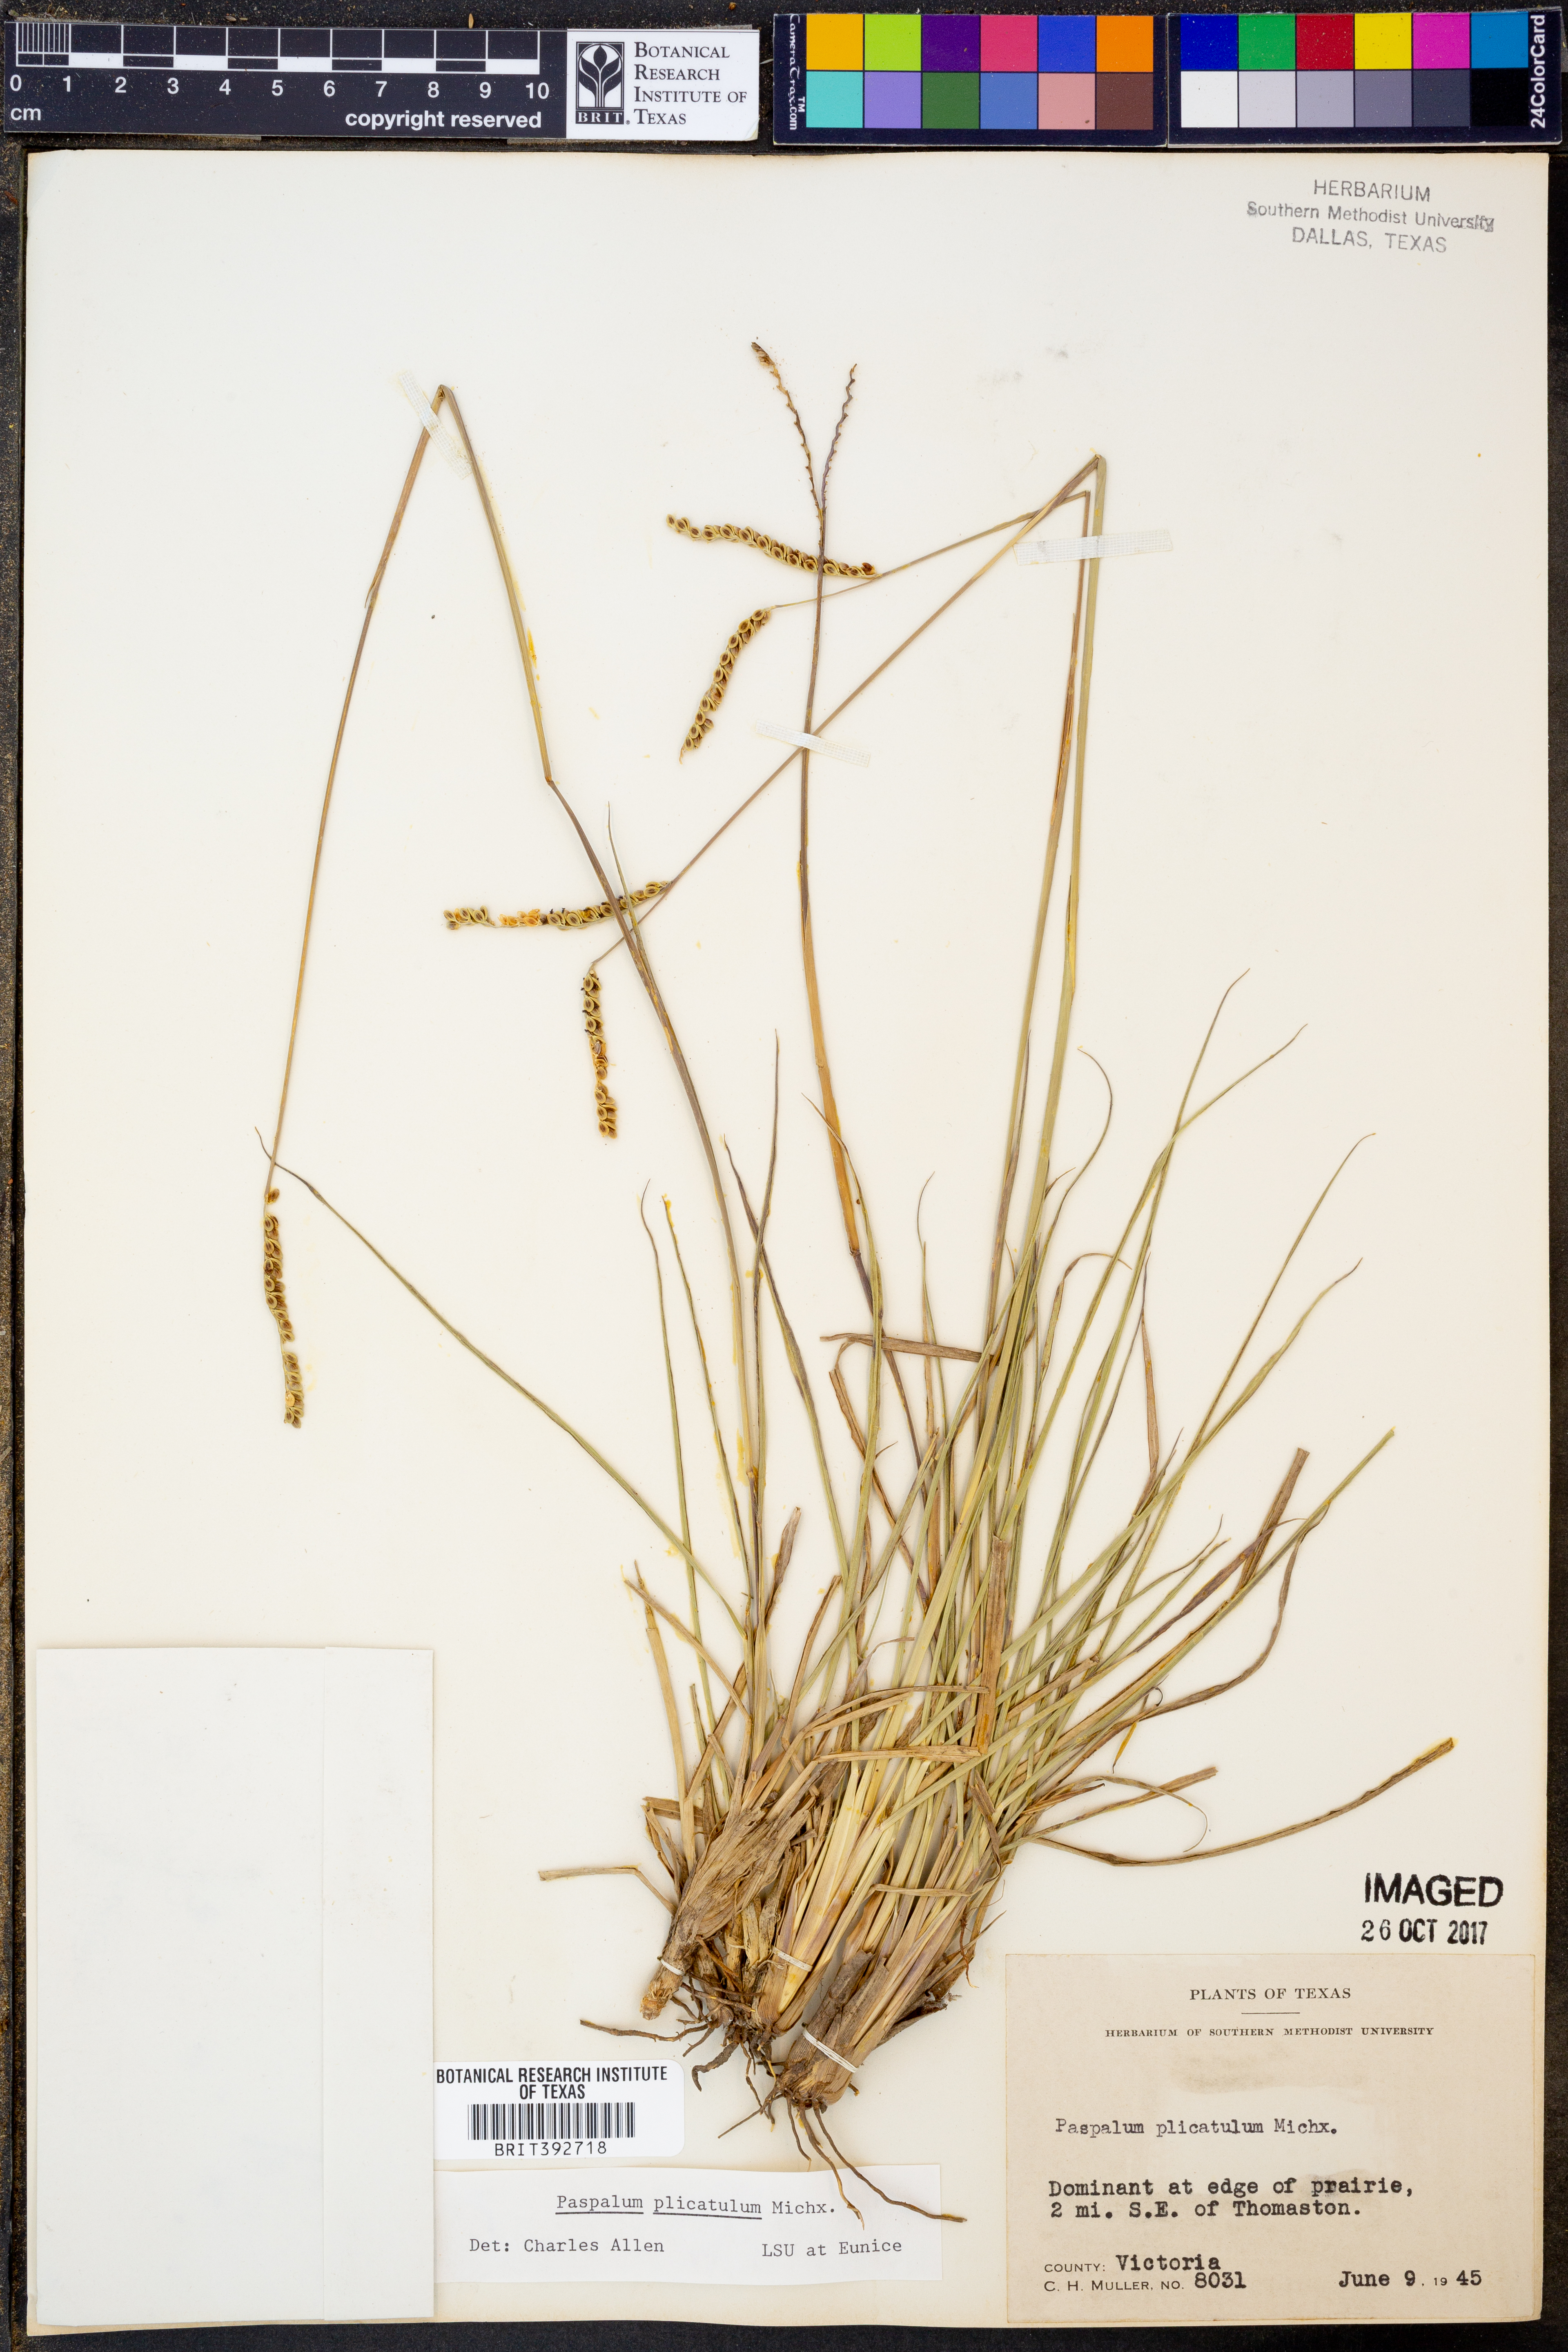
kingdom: Plantae
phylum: Tracheophyta
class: Liliopsida
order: Poales
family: Poaceae
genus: Paspalum
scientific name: Paspalum plicatulum
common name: Top paspalum
